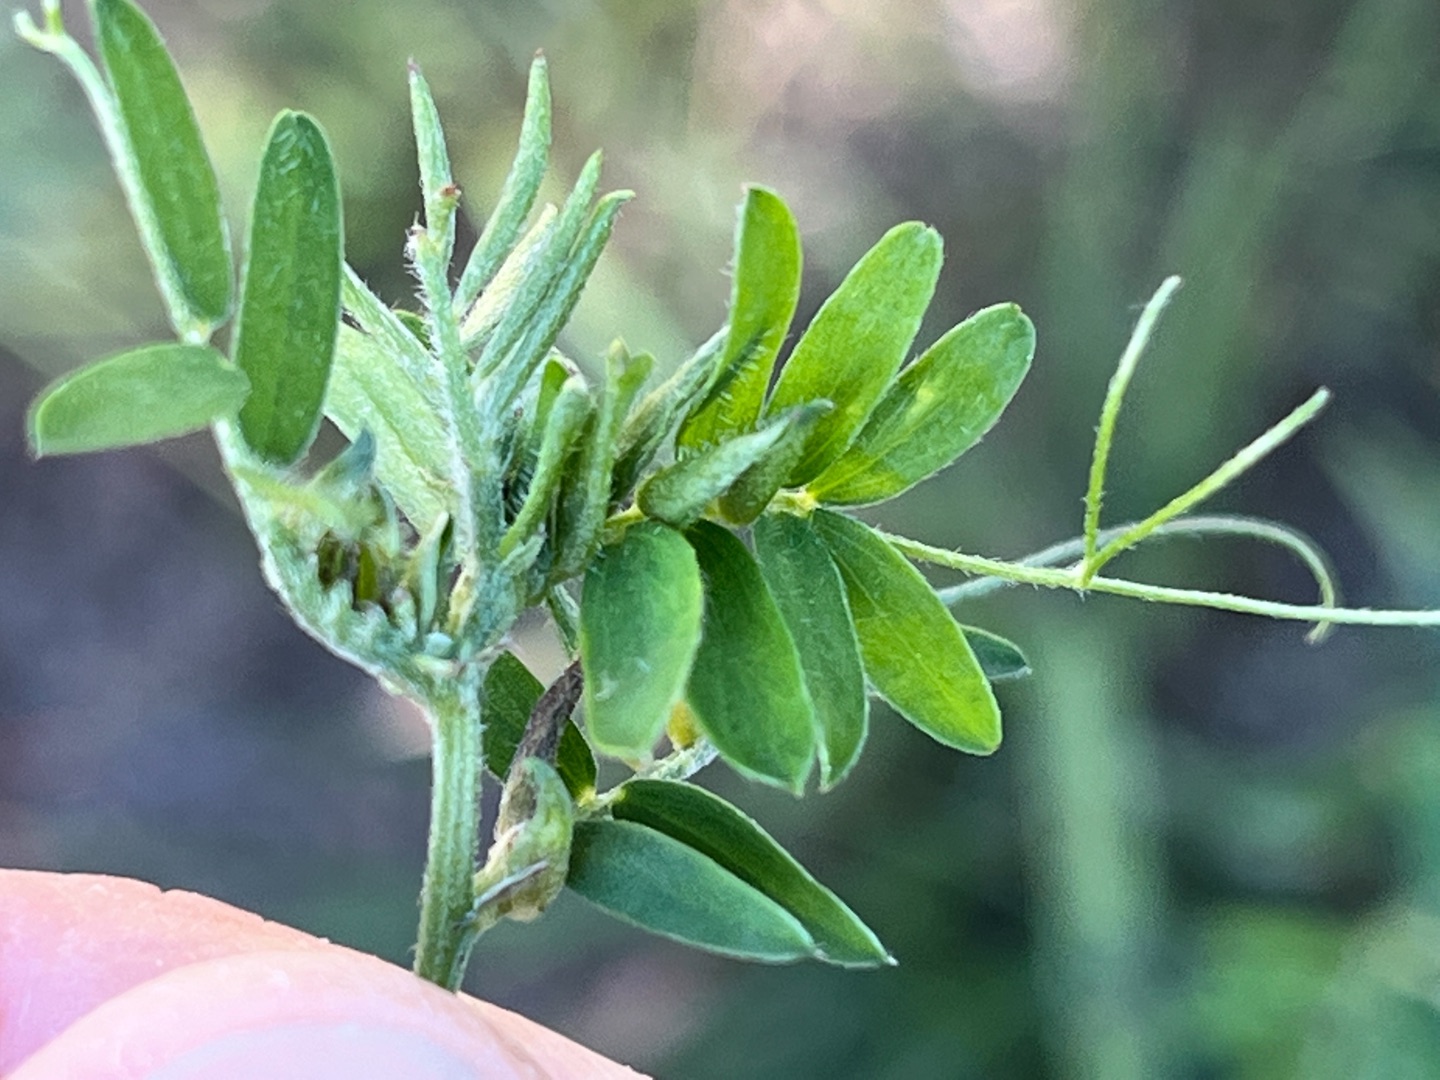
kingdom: Animalia
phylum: Arthropoda
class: Insecta
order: Diptera
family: Cecidomyiidae
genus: Dasineura
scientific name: Dasineura spadicea
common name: Musevikkegalmyg
